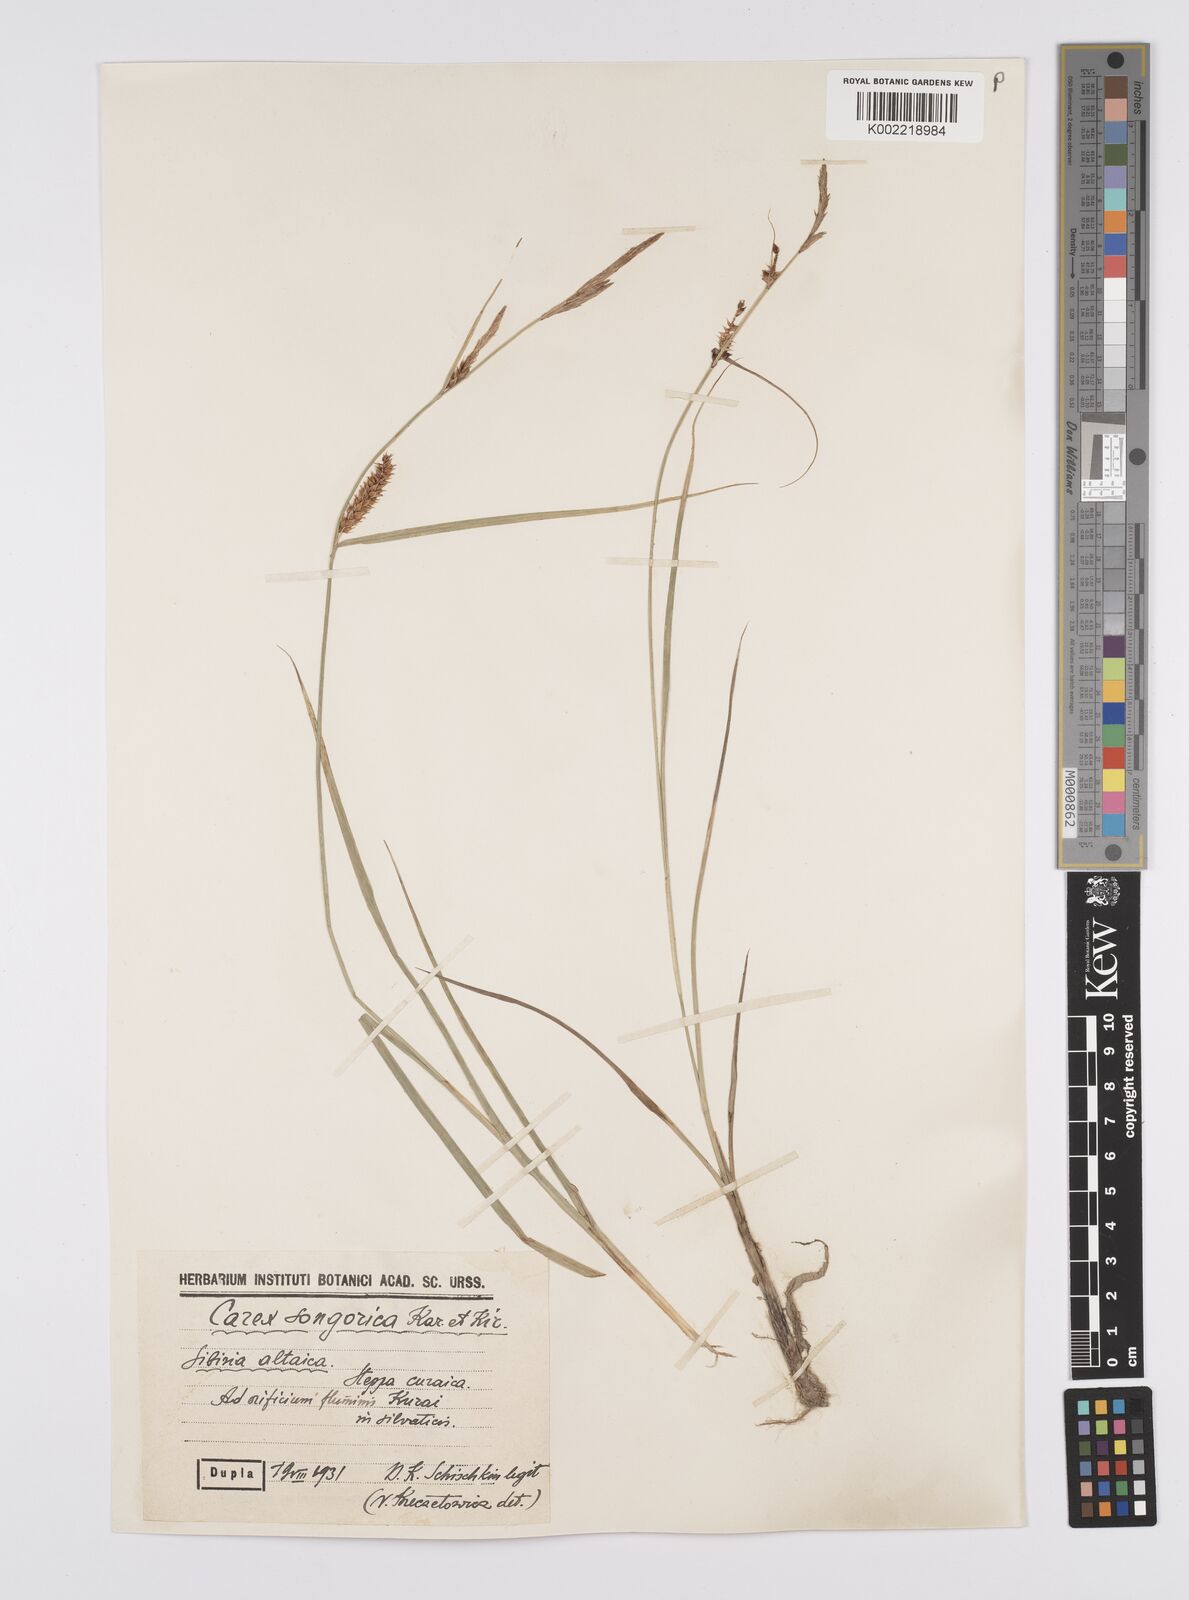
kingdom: Plantae
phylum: Tracheophyta
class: Liliopsida
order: Poales
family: Cyperaceae
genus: Carex
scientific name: Carex heterostachya
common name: Different-spike sedge
